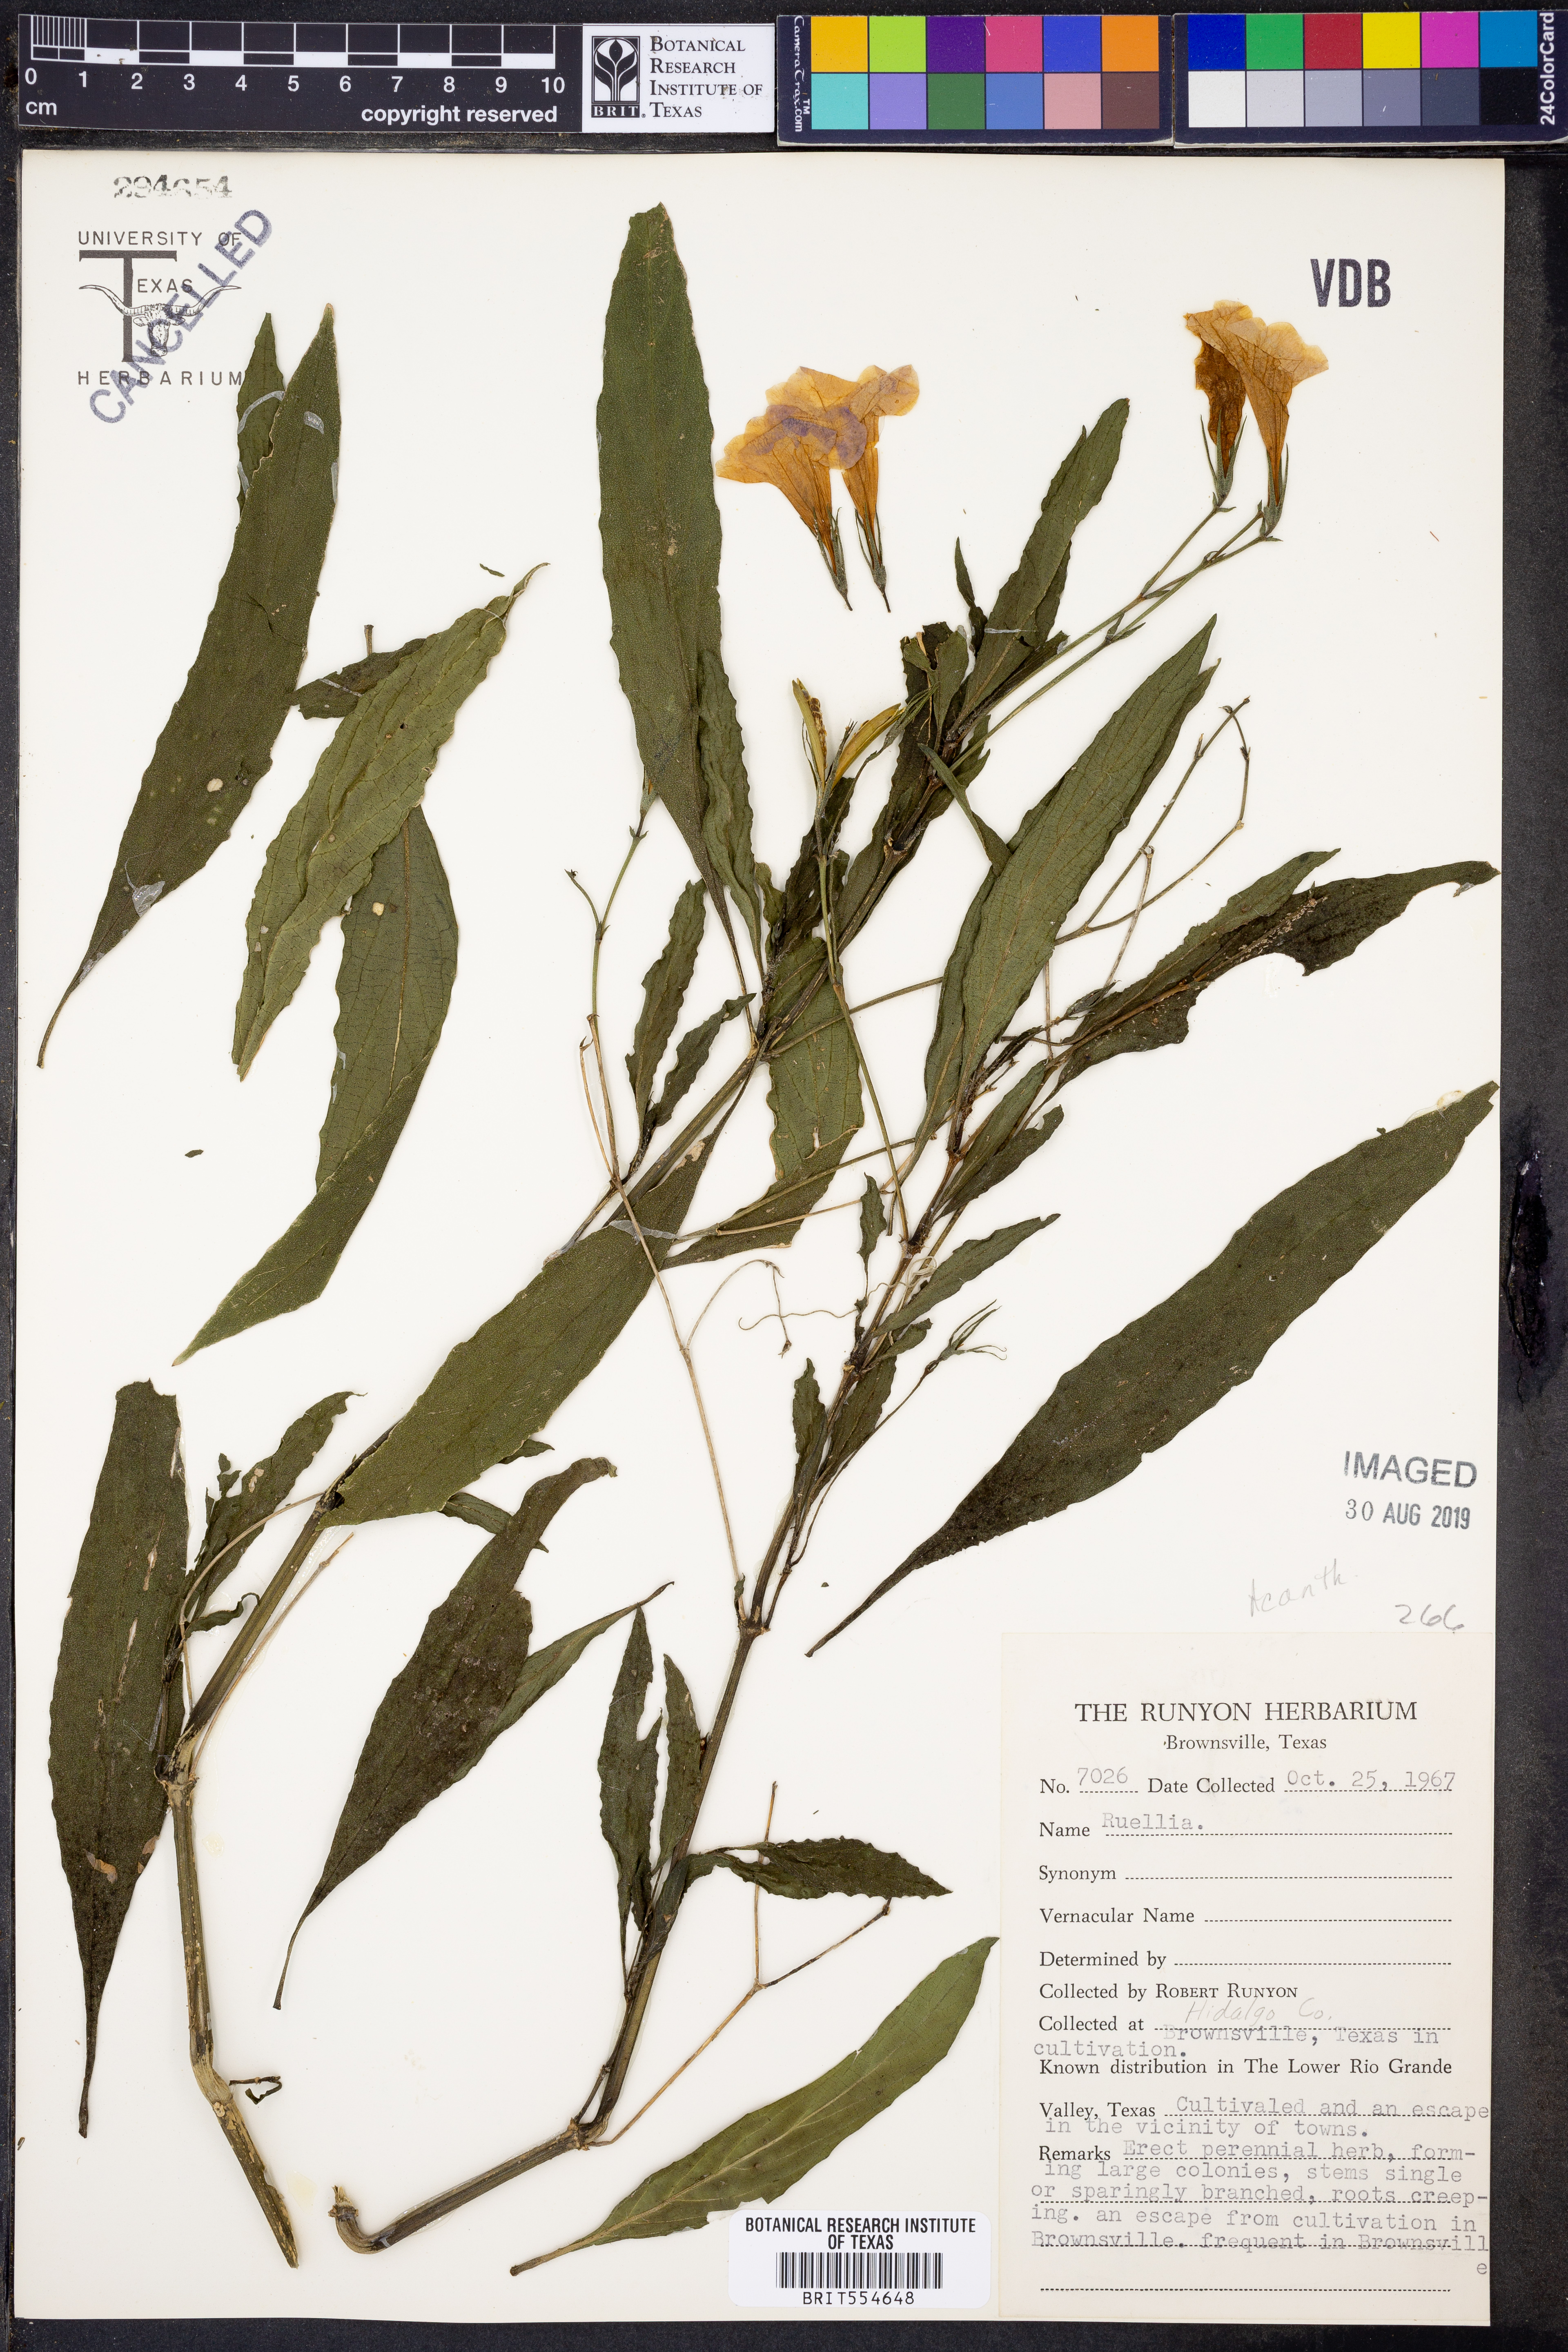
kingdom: Plantae
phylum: Tracheophyta
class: Magnoliopsida
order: Lamiales
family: Acanthaceae
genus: Ruellia
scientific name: Ruellia
